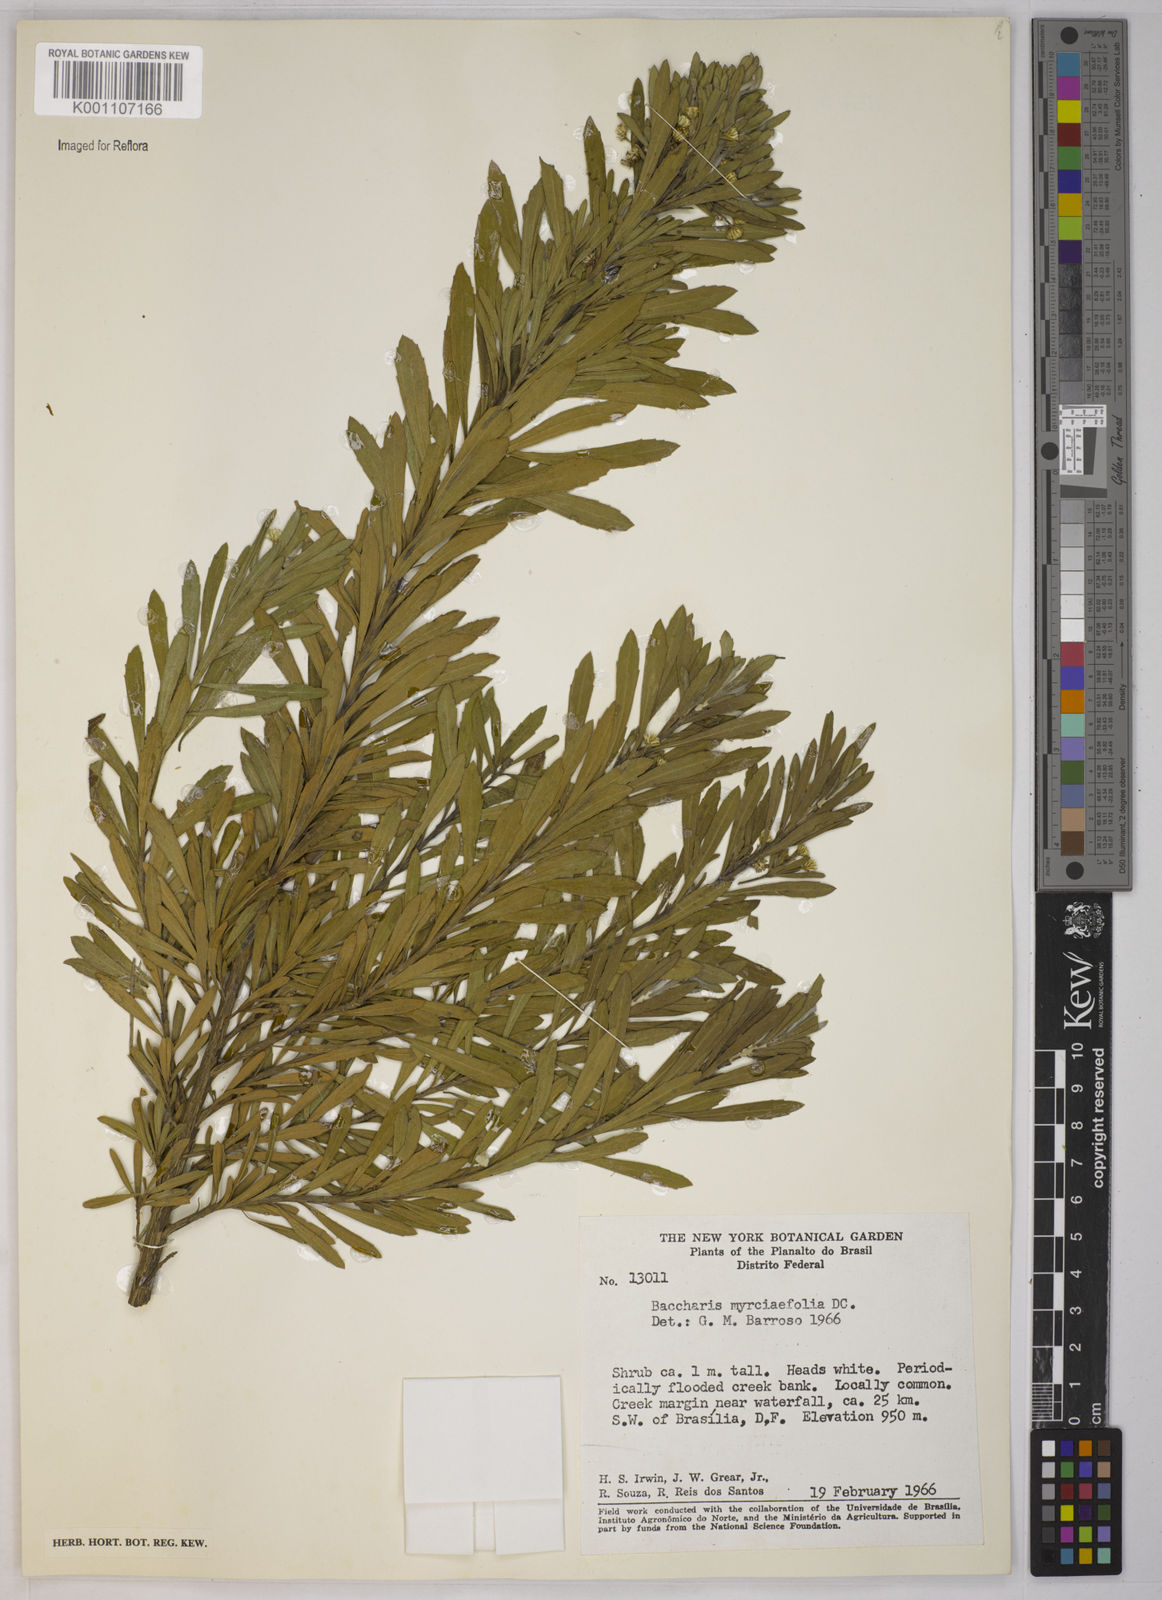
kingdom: Plantae
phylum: Tracheophyta
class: Magnoliopsida
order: Asterales
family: Asteraceae
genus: Baccharis
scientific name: Baccharis
